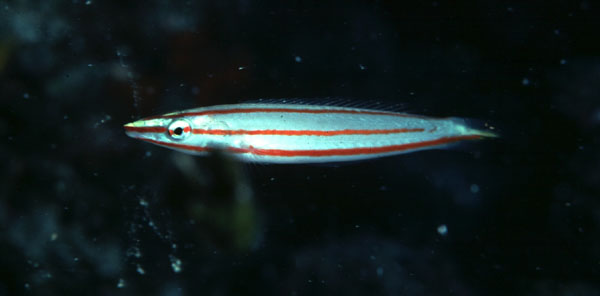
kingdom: Animalia
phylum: Chordata
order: Perciformes
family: Labridae
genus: Hologymnosus
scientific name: Hologymnosus doliatus
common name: Pastel ringwrasse
